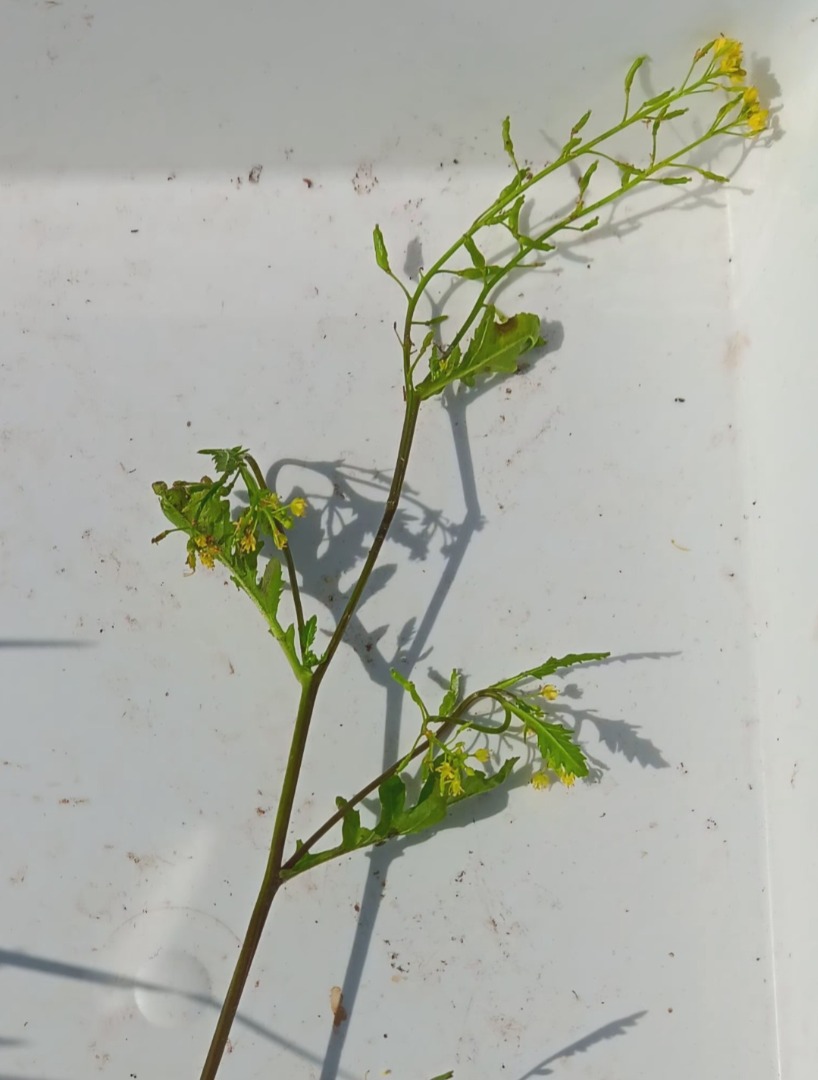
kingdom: Plantae
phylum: Tracheophyta
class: Magnoliopsida
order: Brassicales
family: Brassicaceae
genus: Rorippa
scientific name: Rorippa palustris
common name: Kær-guldkarse
